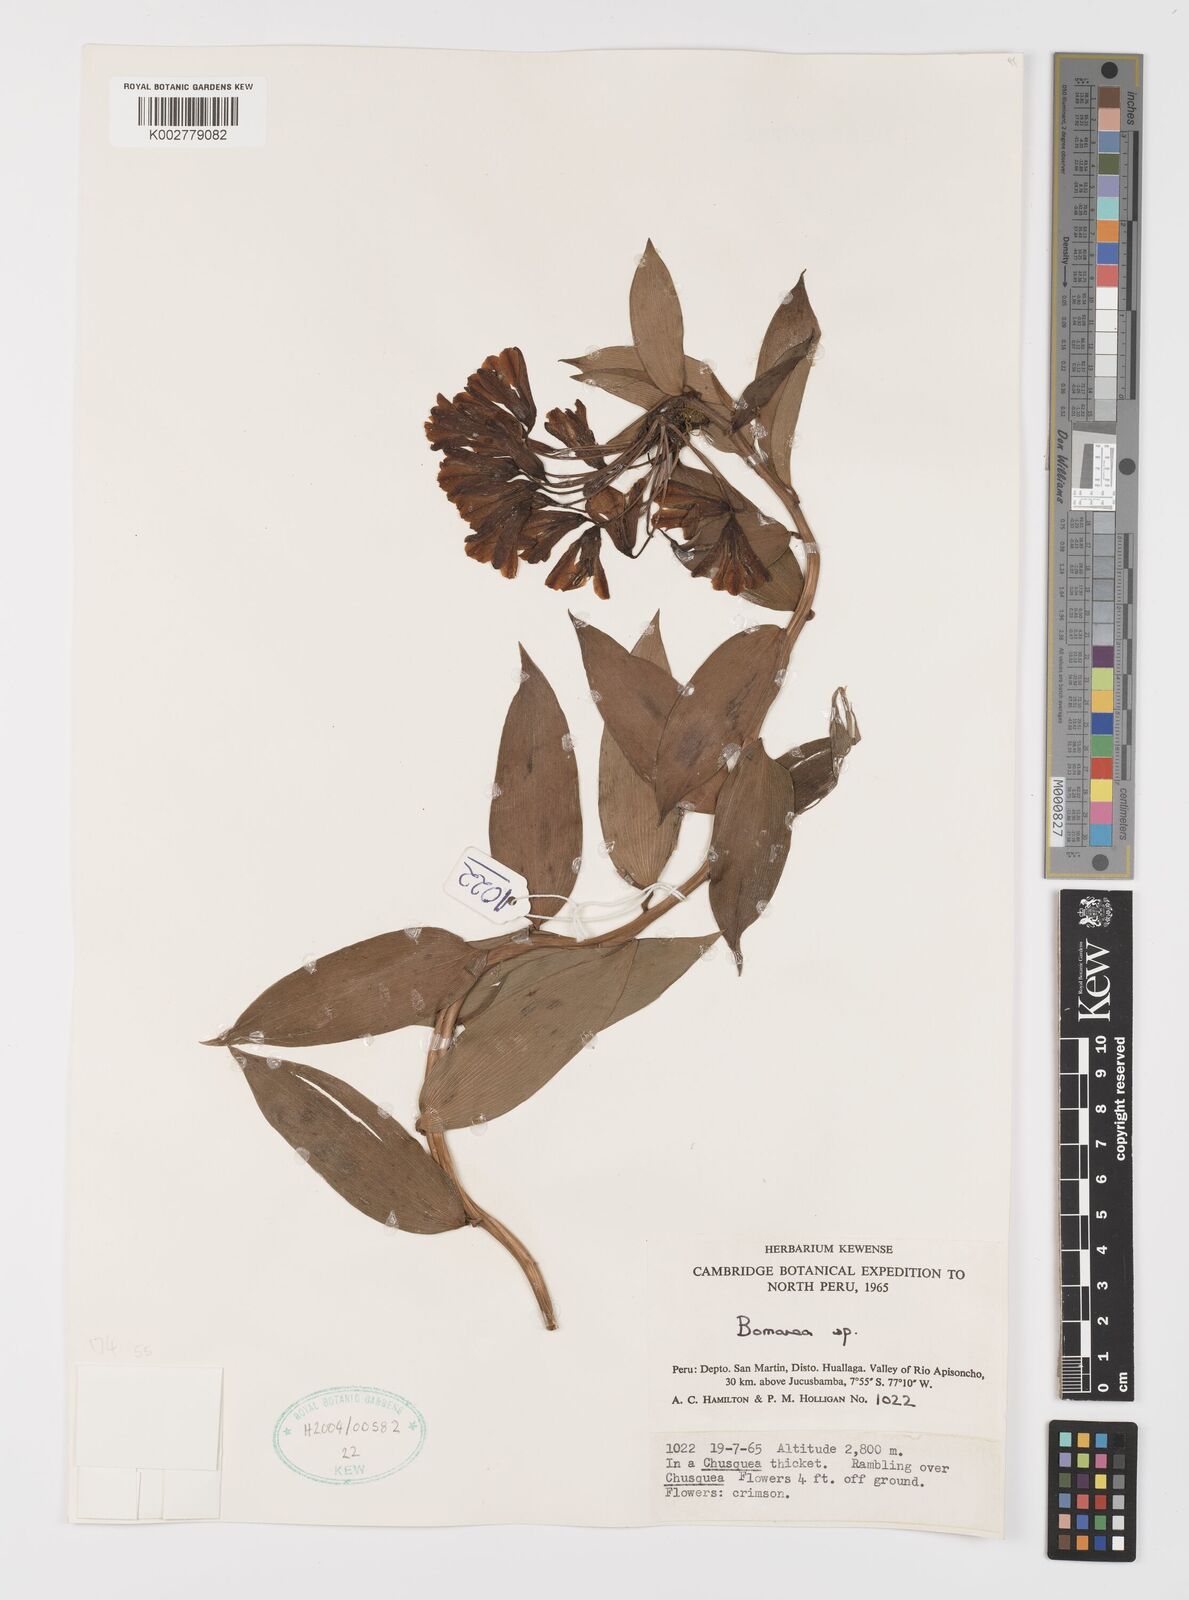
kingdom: Plantae
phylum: Tracheophyta
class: Liliopsida
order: Liliales
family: Alstroemeriaceae
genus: Bomarea
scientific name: Bomarea
